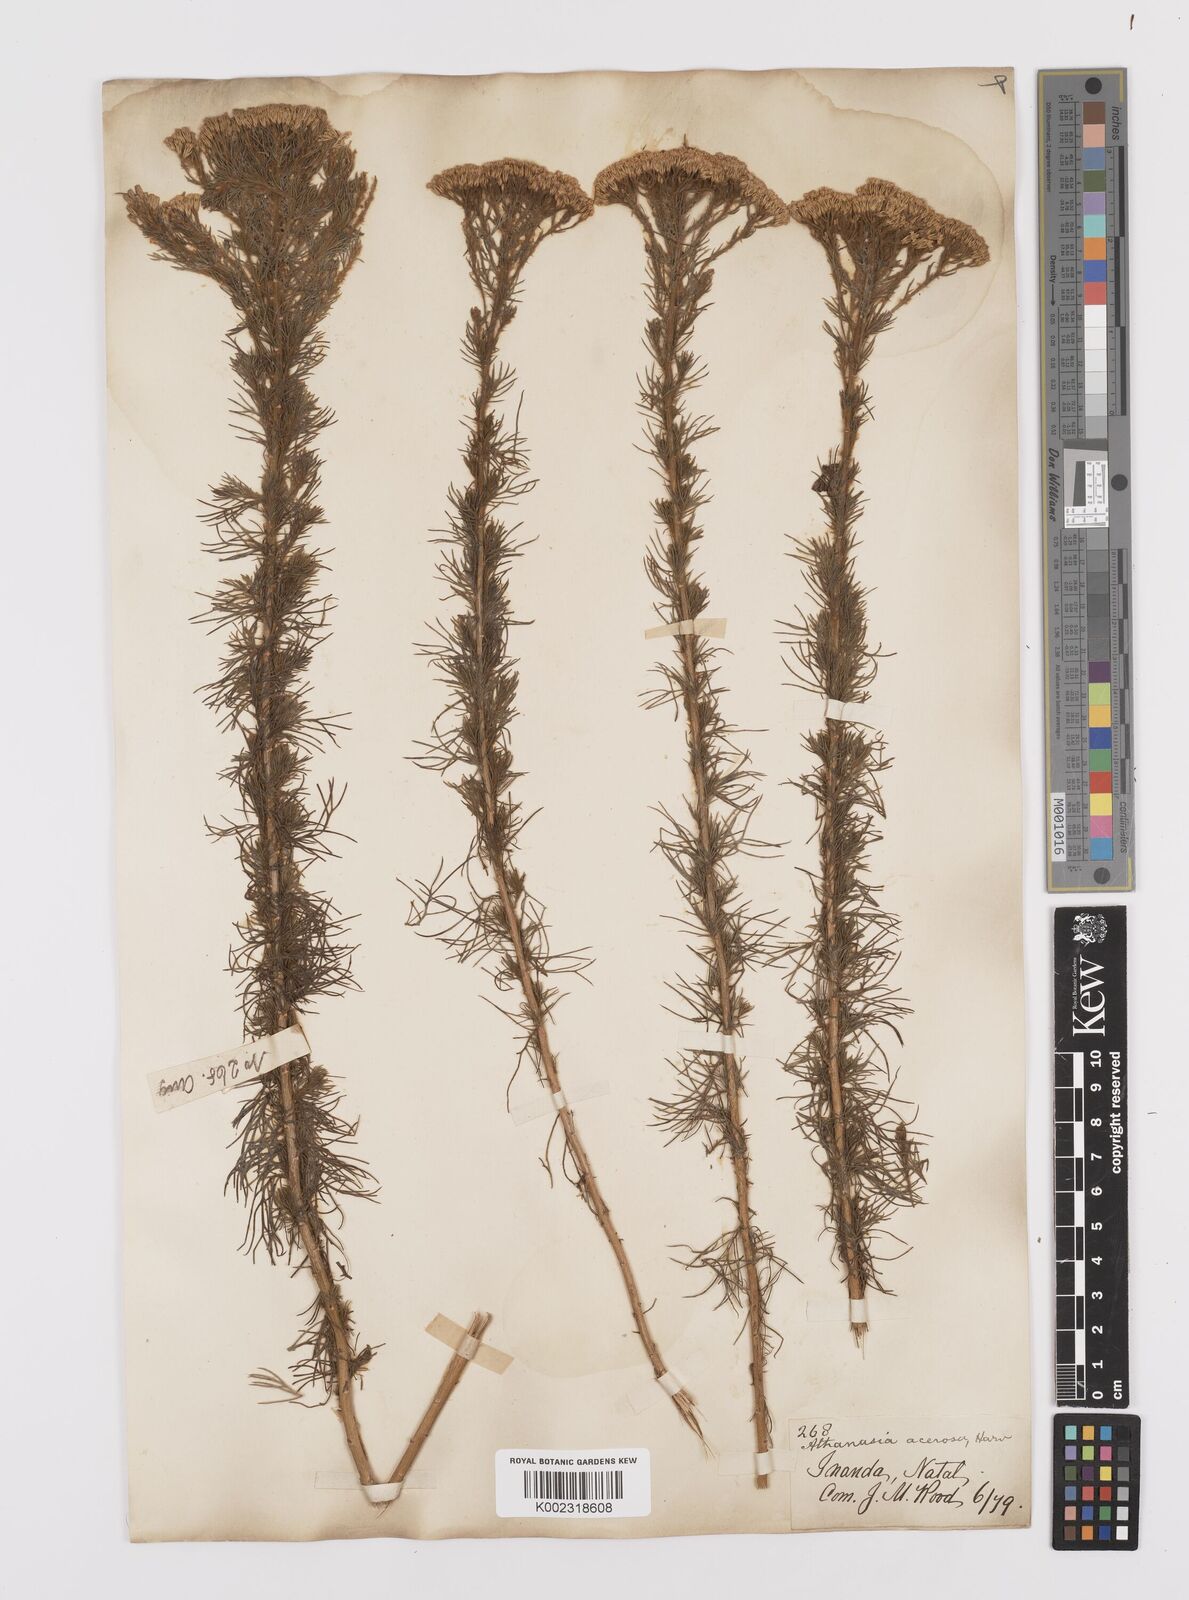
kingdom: Plantae
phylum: Tracheophyta
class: Magnoliopsida
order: Asterales
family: Asteraceae
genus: Phymaspermum
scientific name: Phymaspermum acerosum
